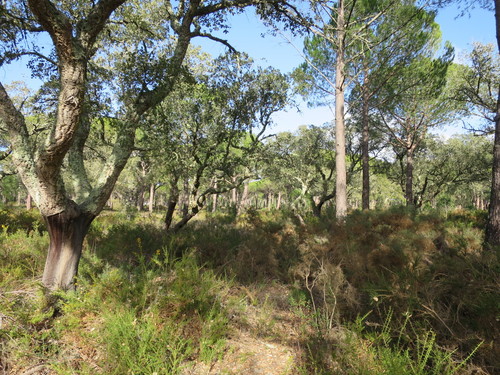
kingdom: Plantae
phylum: Tracheophyta
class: Magnoliopsida
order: Fagales
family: Fagaceae
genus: Quercus
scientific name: Quercus suber
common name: Cork oak
